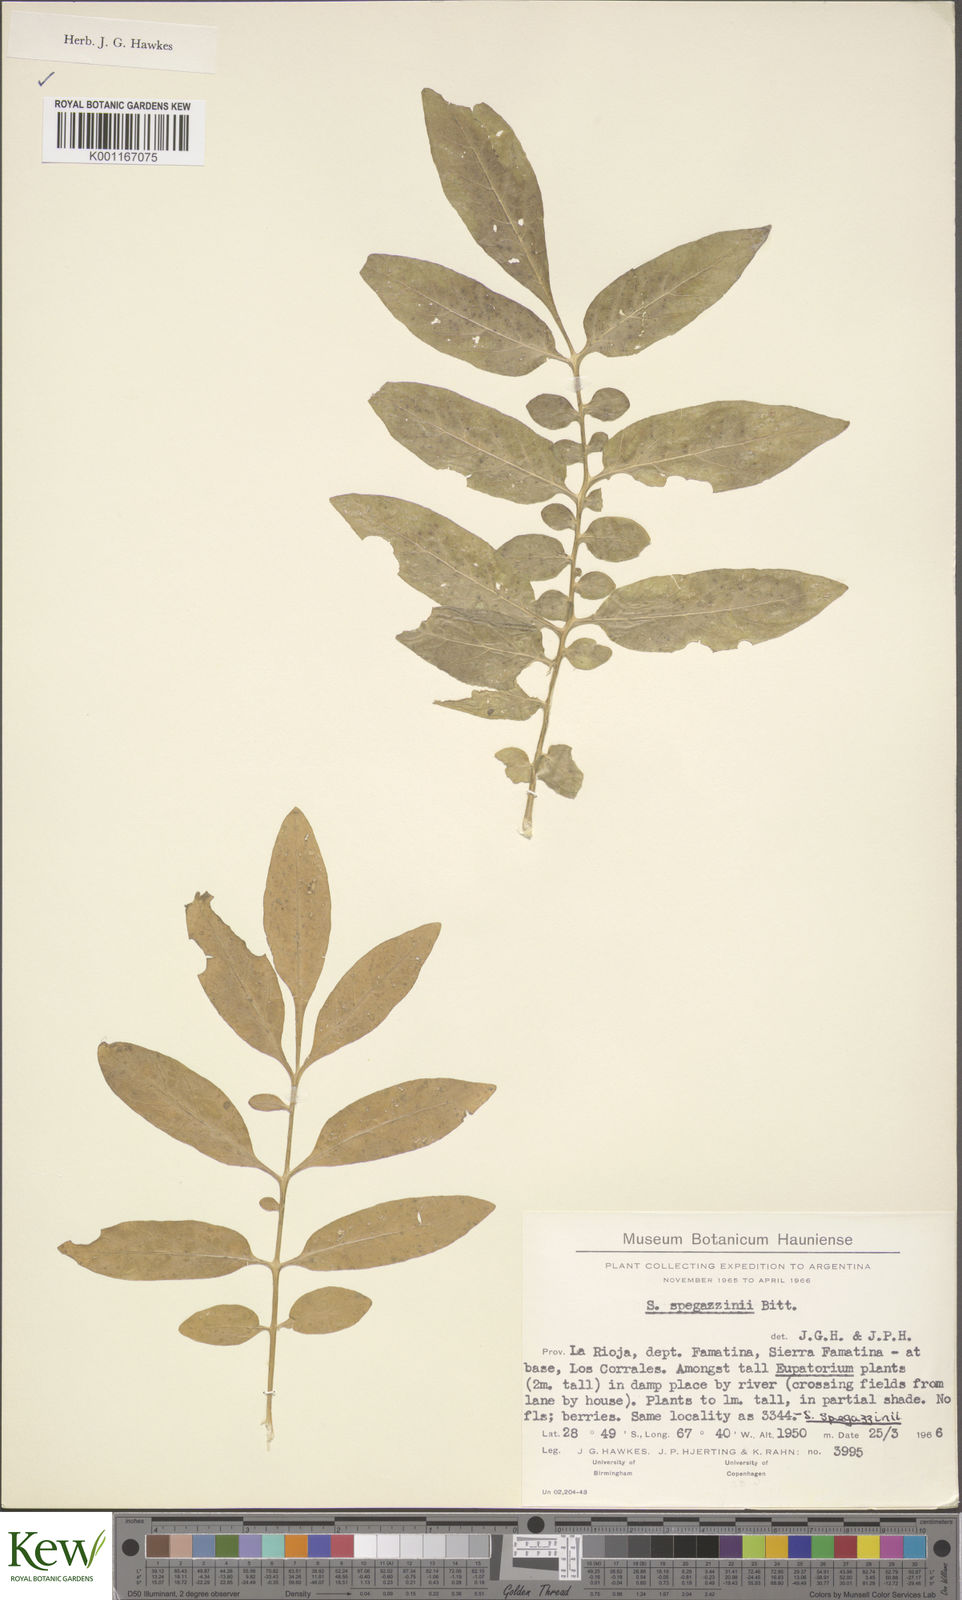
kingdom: Plantae
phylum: Tracheophyta
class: Magnoliopsida
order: Solanales
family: Solanaceae
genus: Solanum
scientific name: Solanum brevicaule
